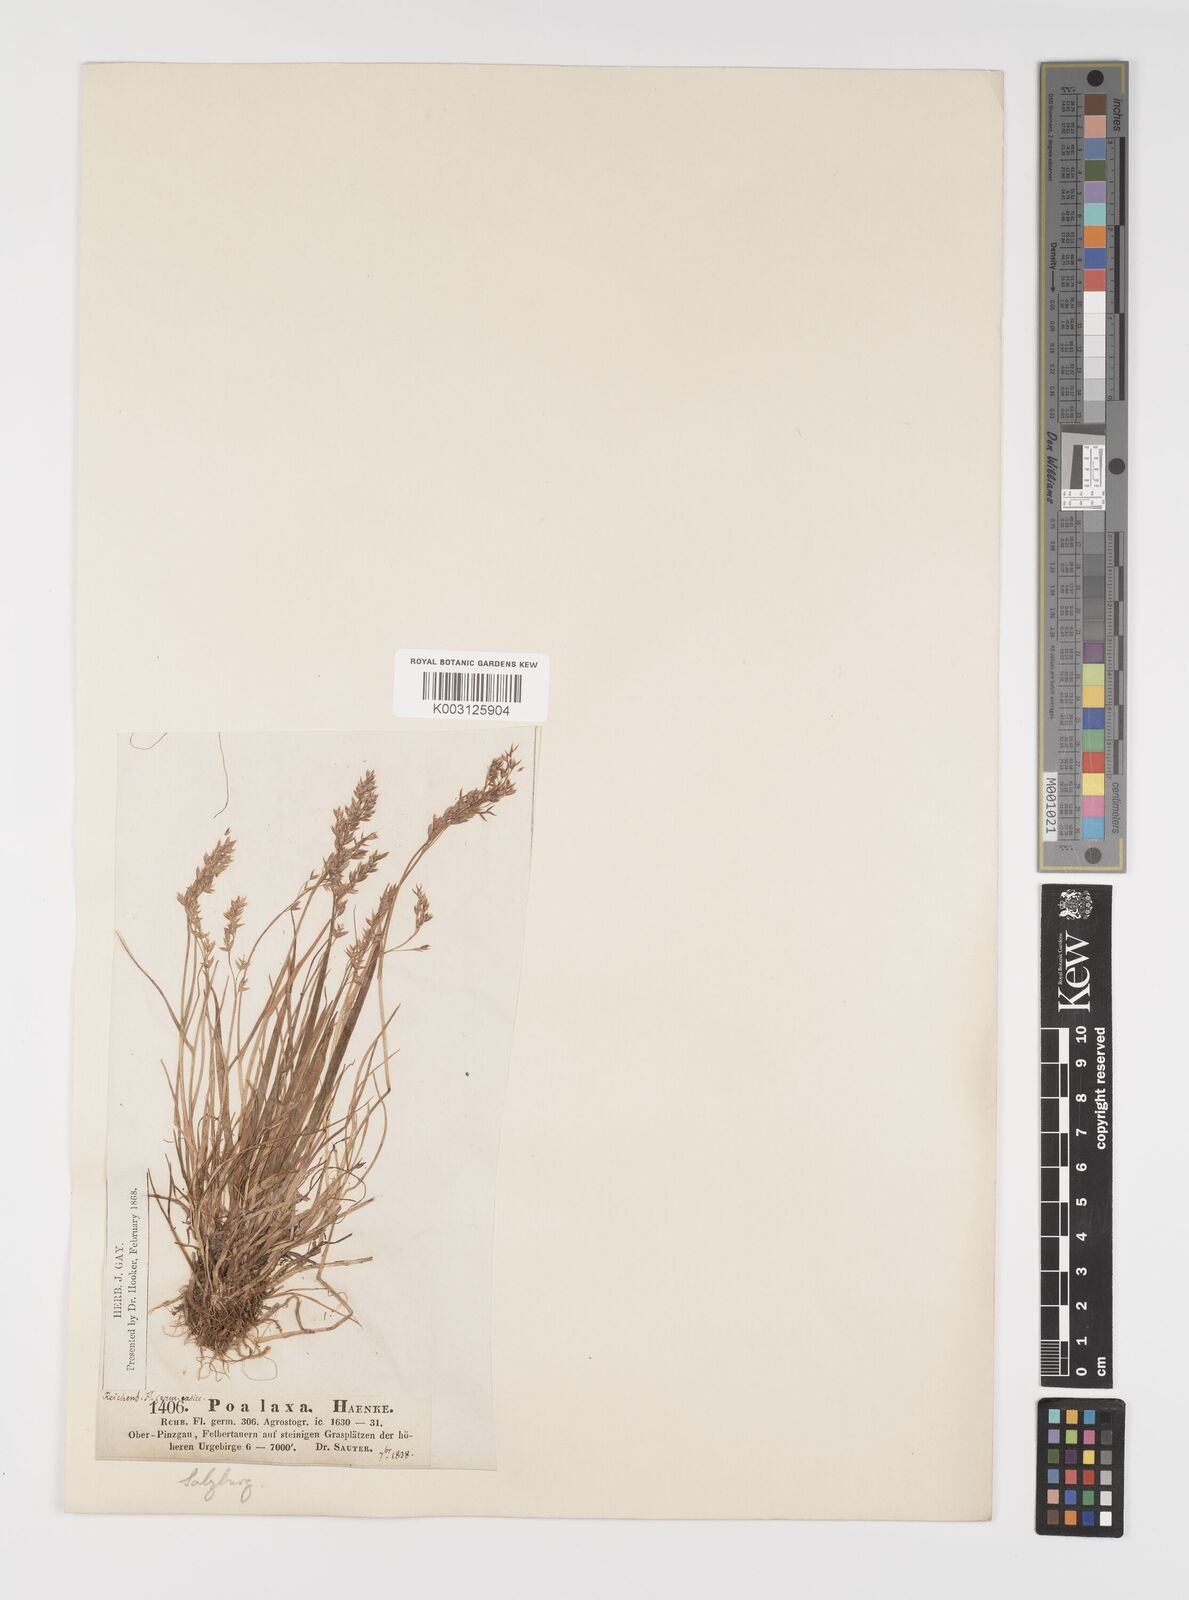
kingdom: Plantae
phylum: Tracheophyta
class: Liliopsida
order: Poales
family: Poaceae
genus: Poa
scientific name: Poa laxa
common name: Lax bluegrass
